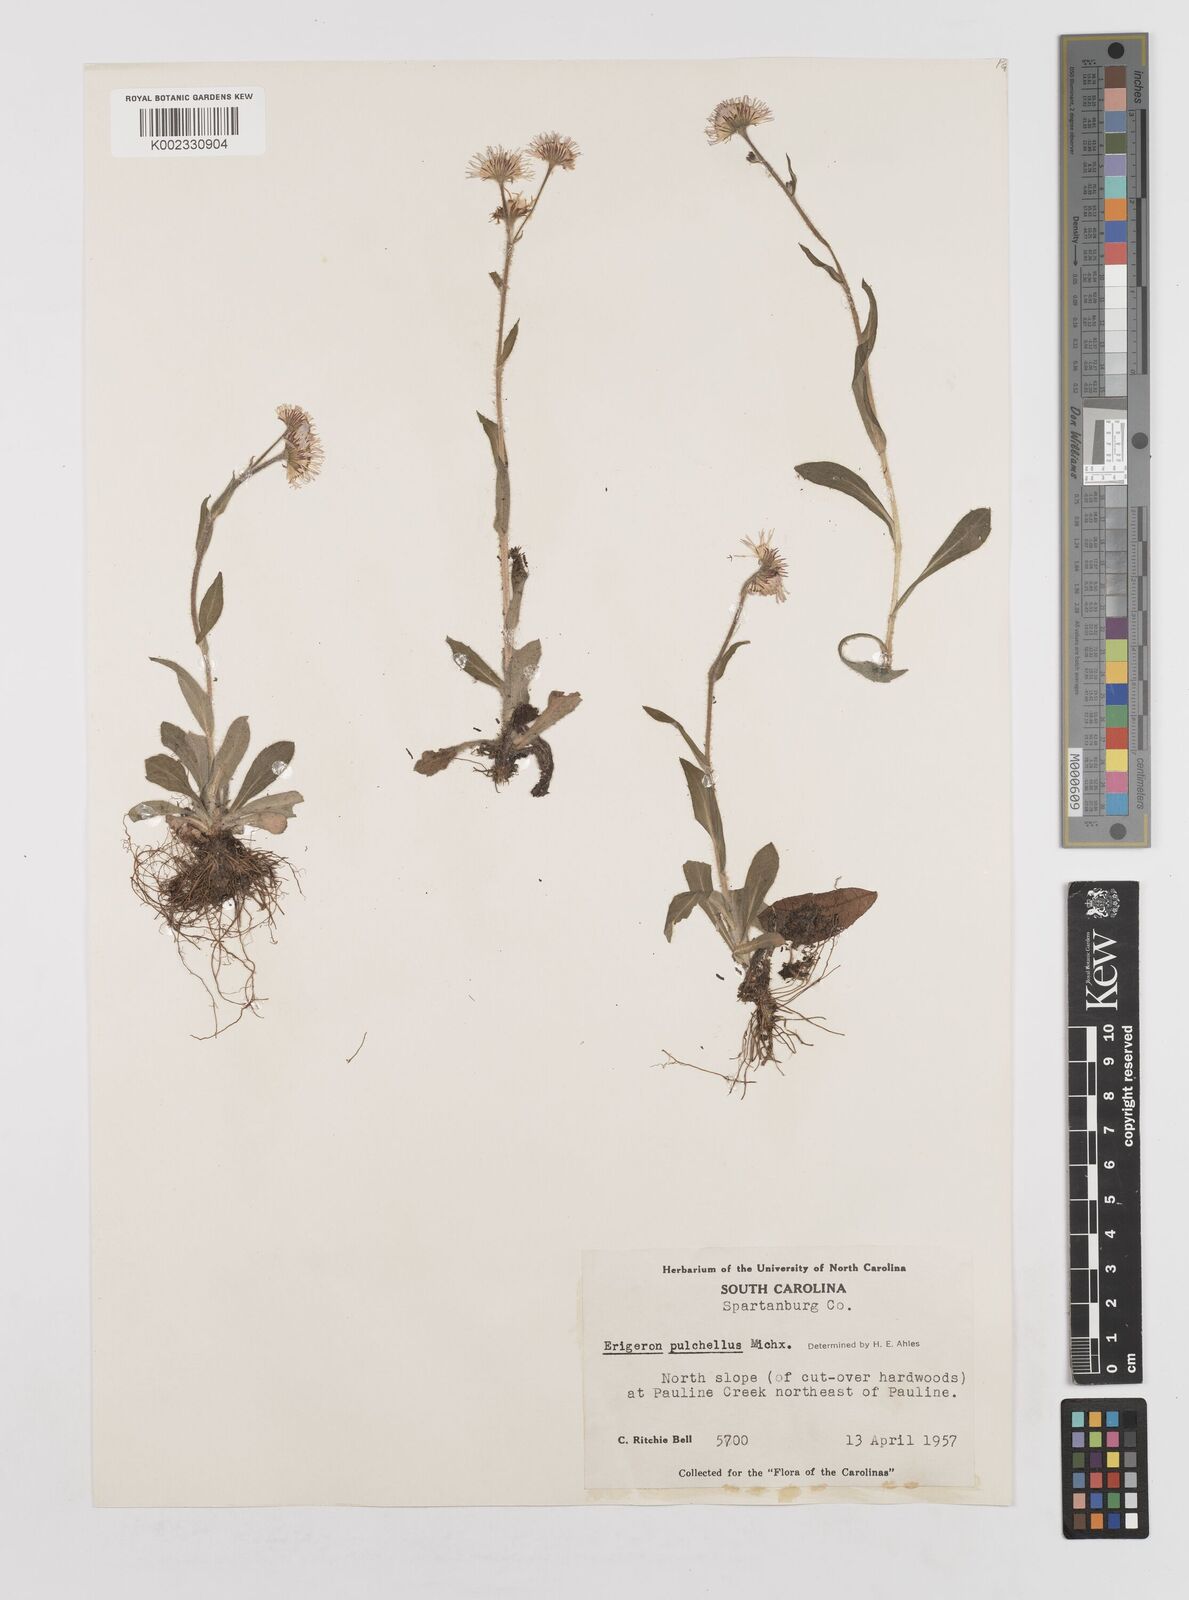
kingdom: Plantae
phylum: Tracheophyta
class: Magnoliopsida
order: Asterales
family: Asteraceae
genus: Erigeron
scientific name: Erigeron pulchellus
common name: Hairy fleabane
